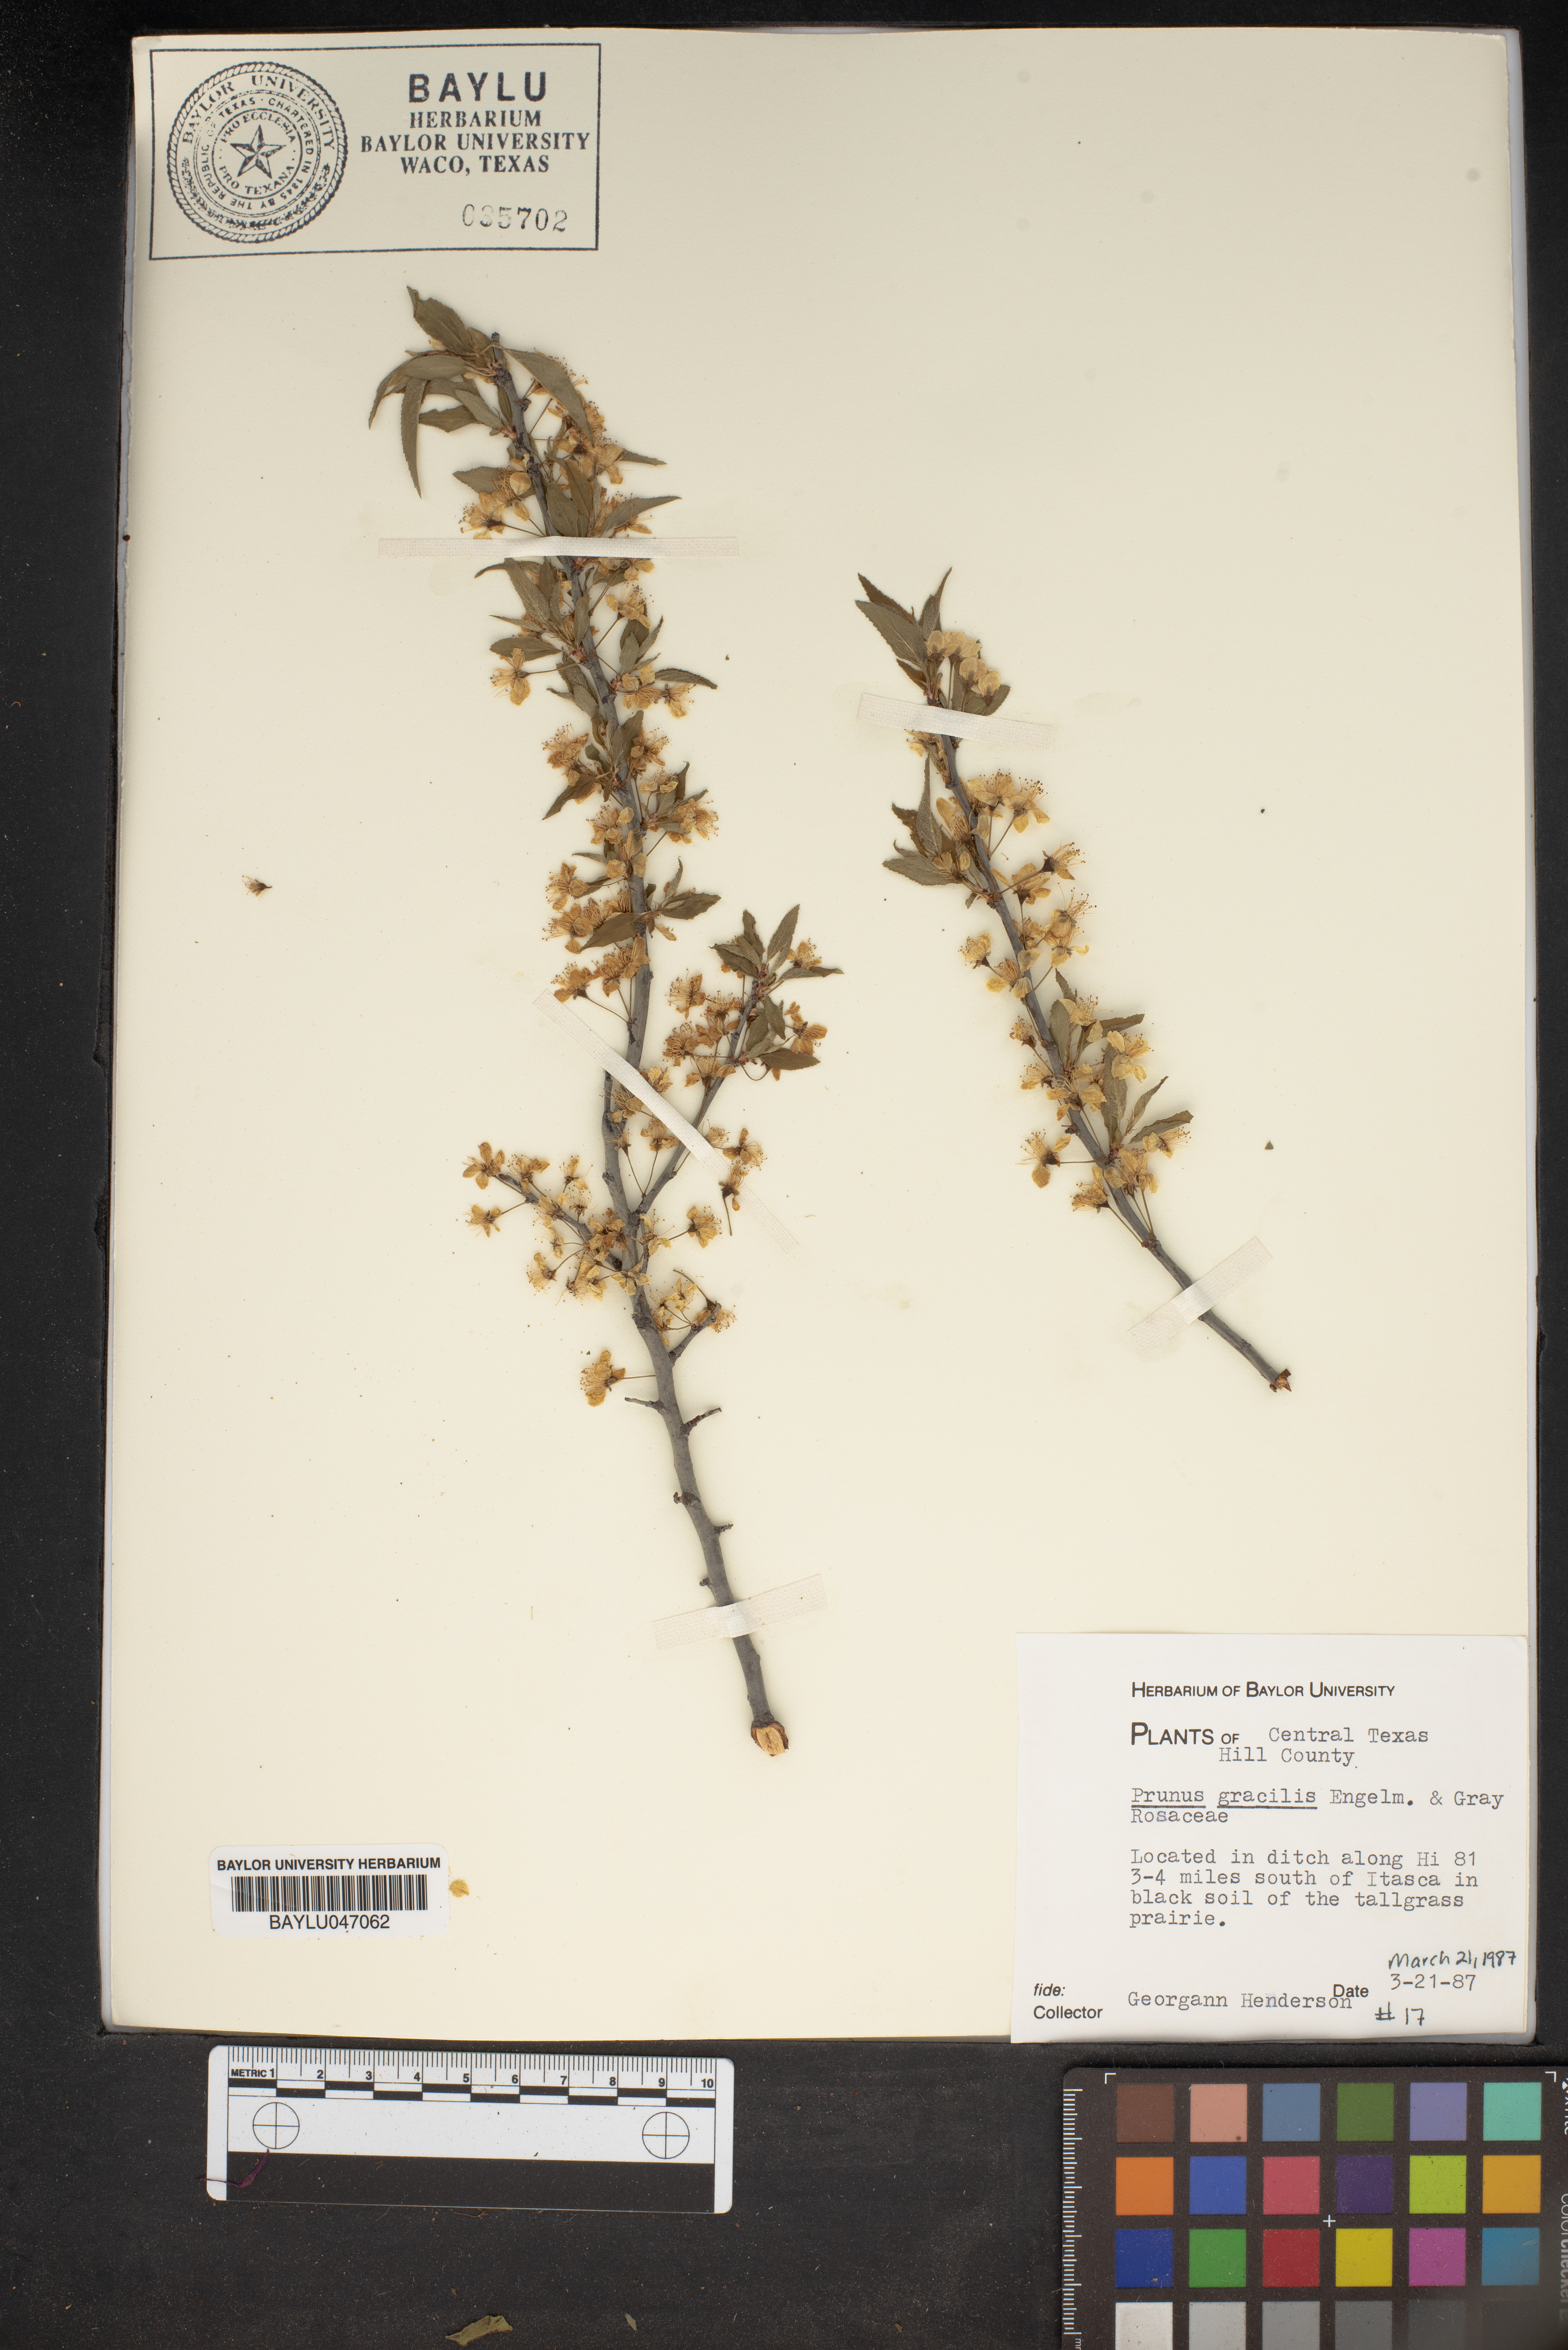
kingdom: Plantae
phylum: Tracheophyta
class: Magnoliopsida
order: Rosales
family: Rosaceae
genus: Prunus
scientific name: Prunus gracilis
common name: Oklahoma plum
